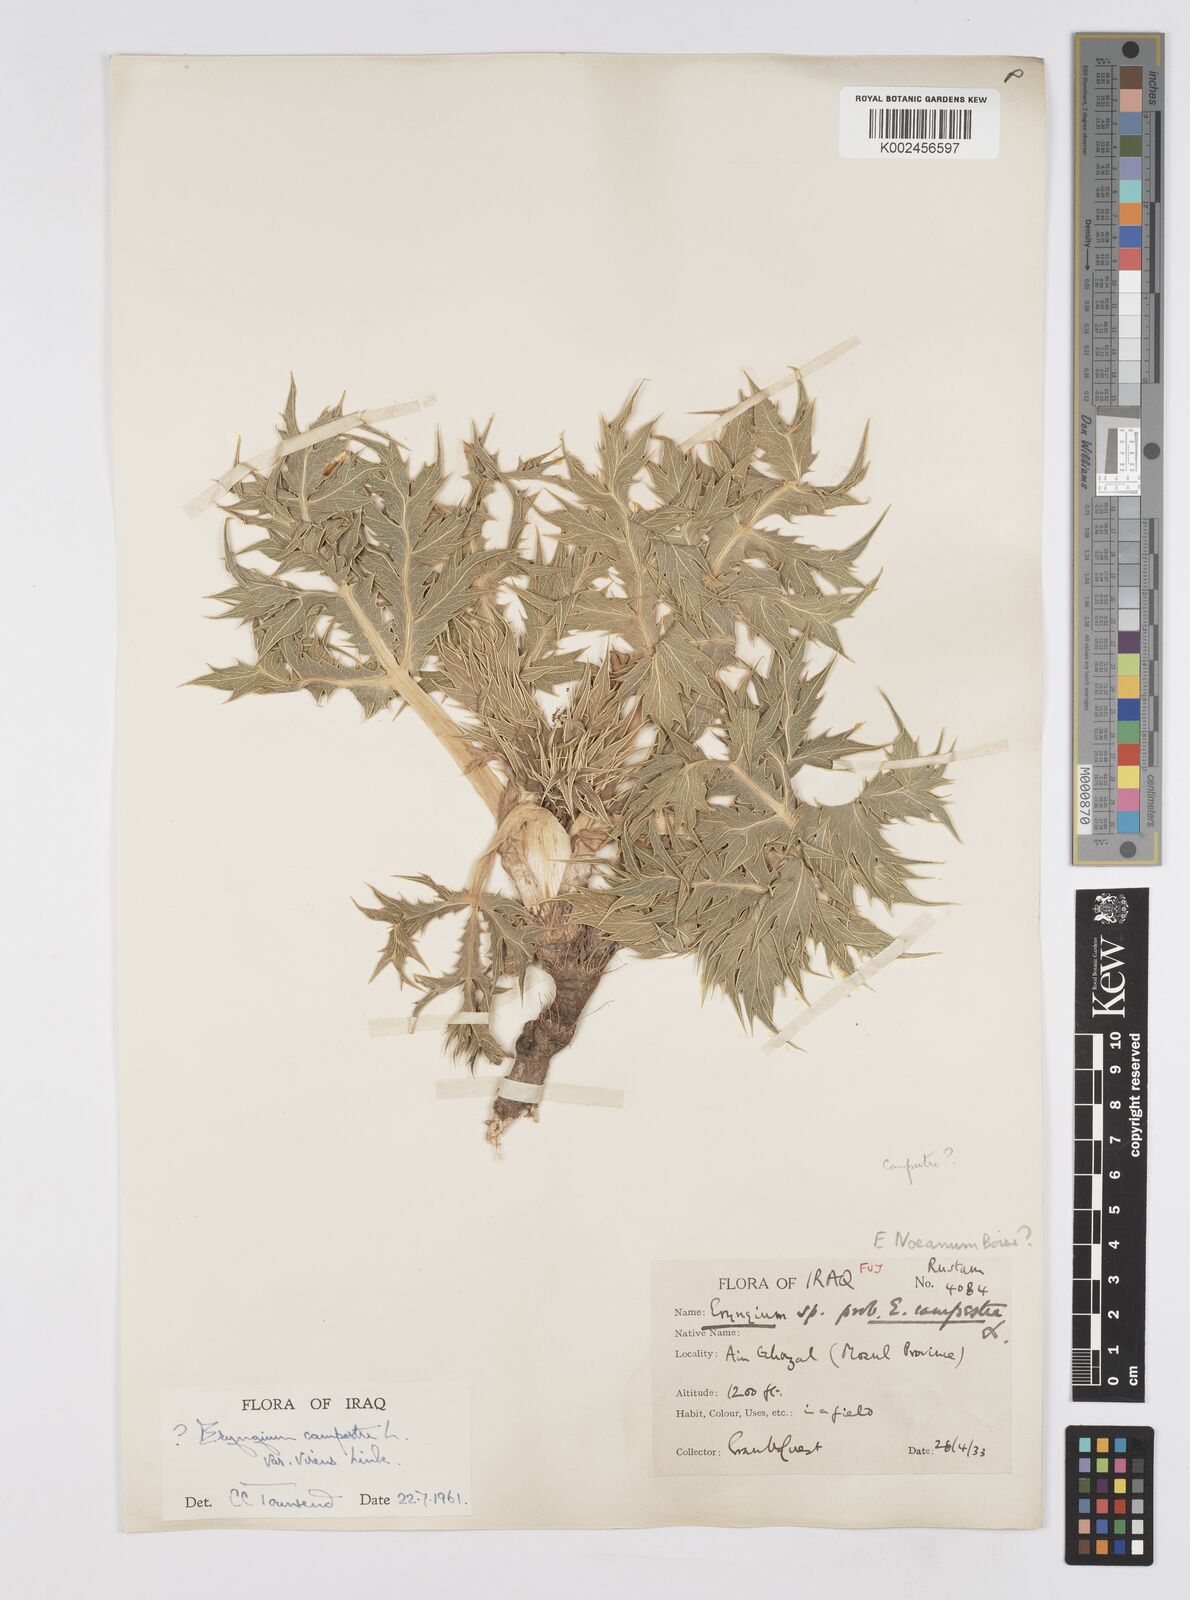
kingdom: Plantae
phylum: Tracheophyta
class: Magnoliopsida
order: Apiales
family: Apiaceae
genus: Eryngium
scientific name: Eryngium campestre
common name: Field eryngo
